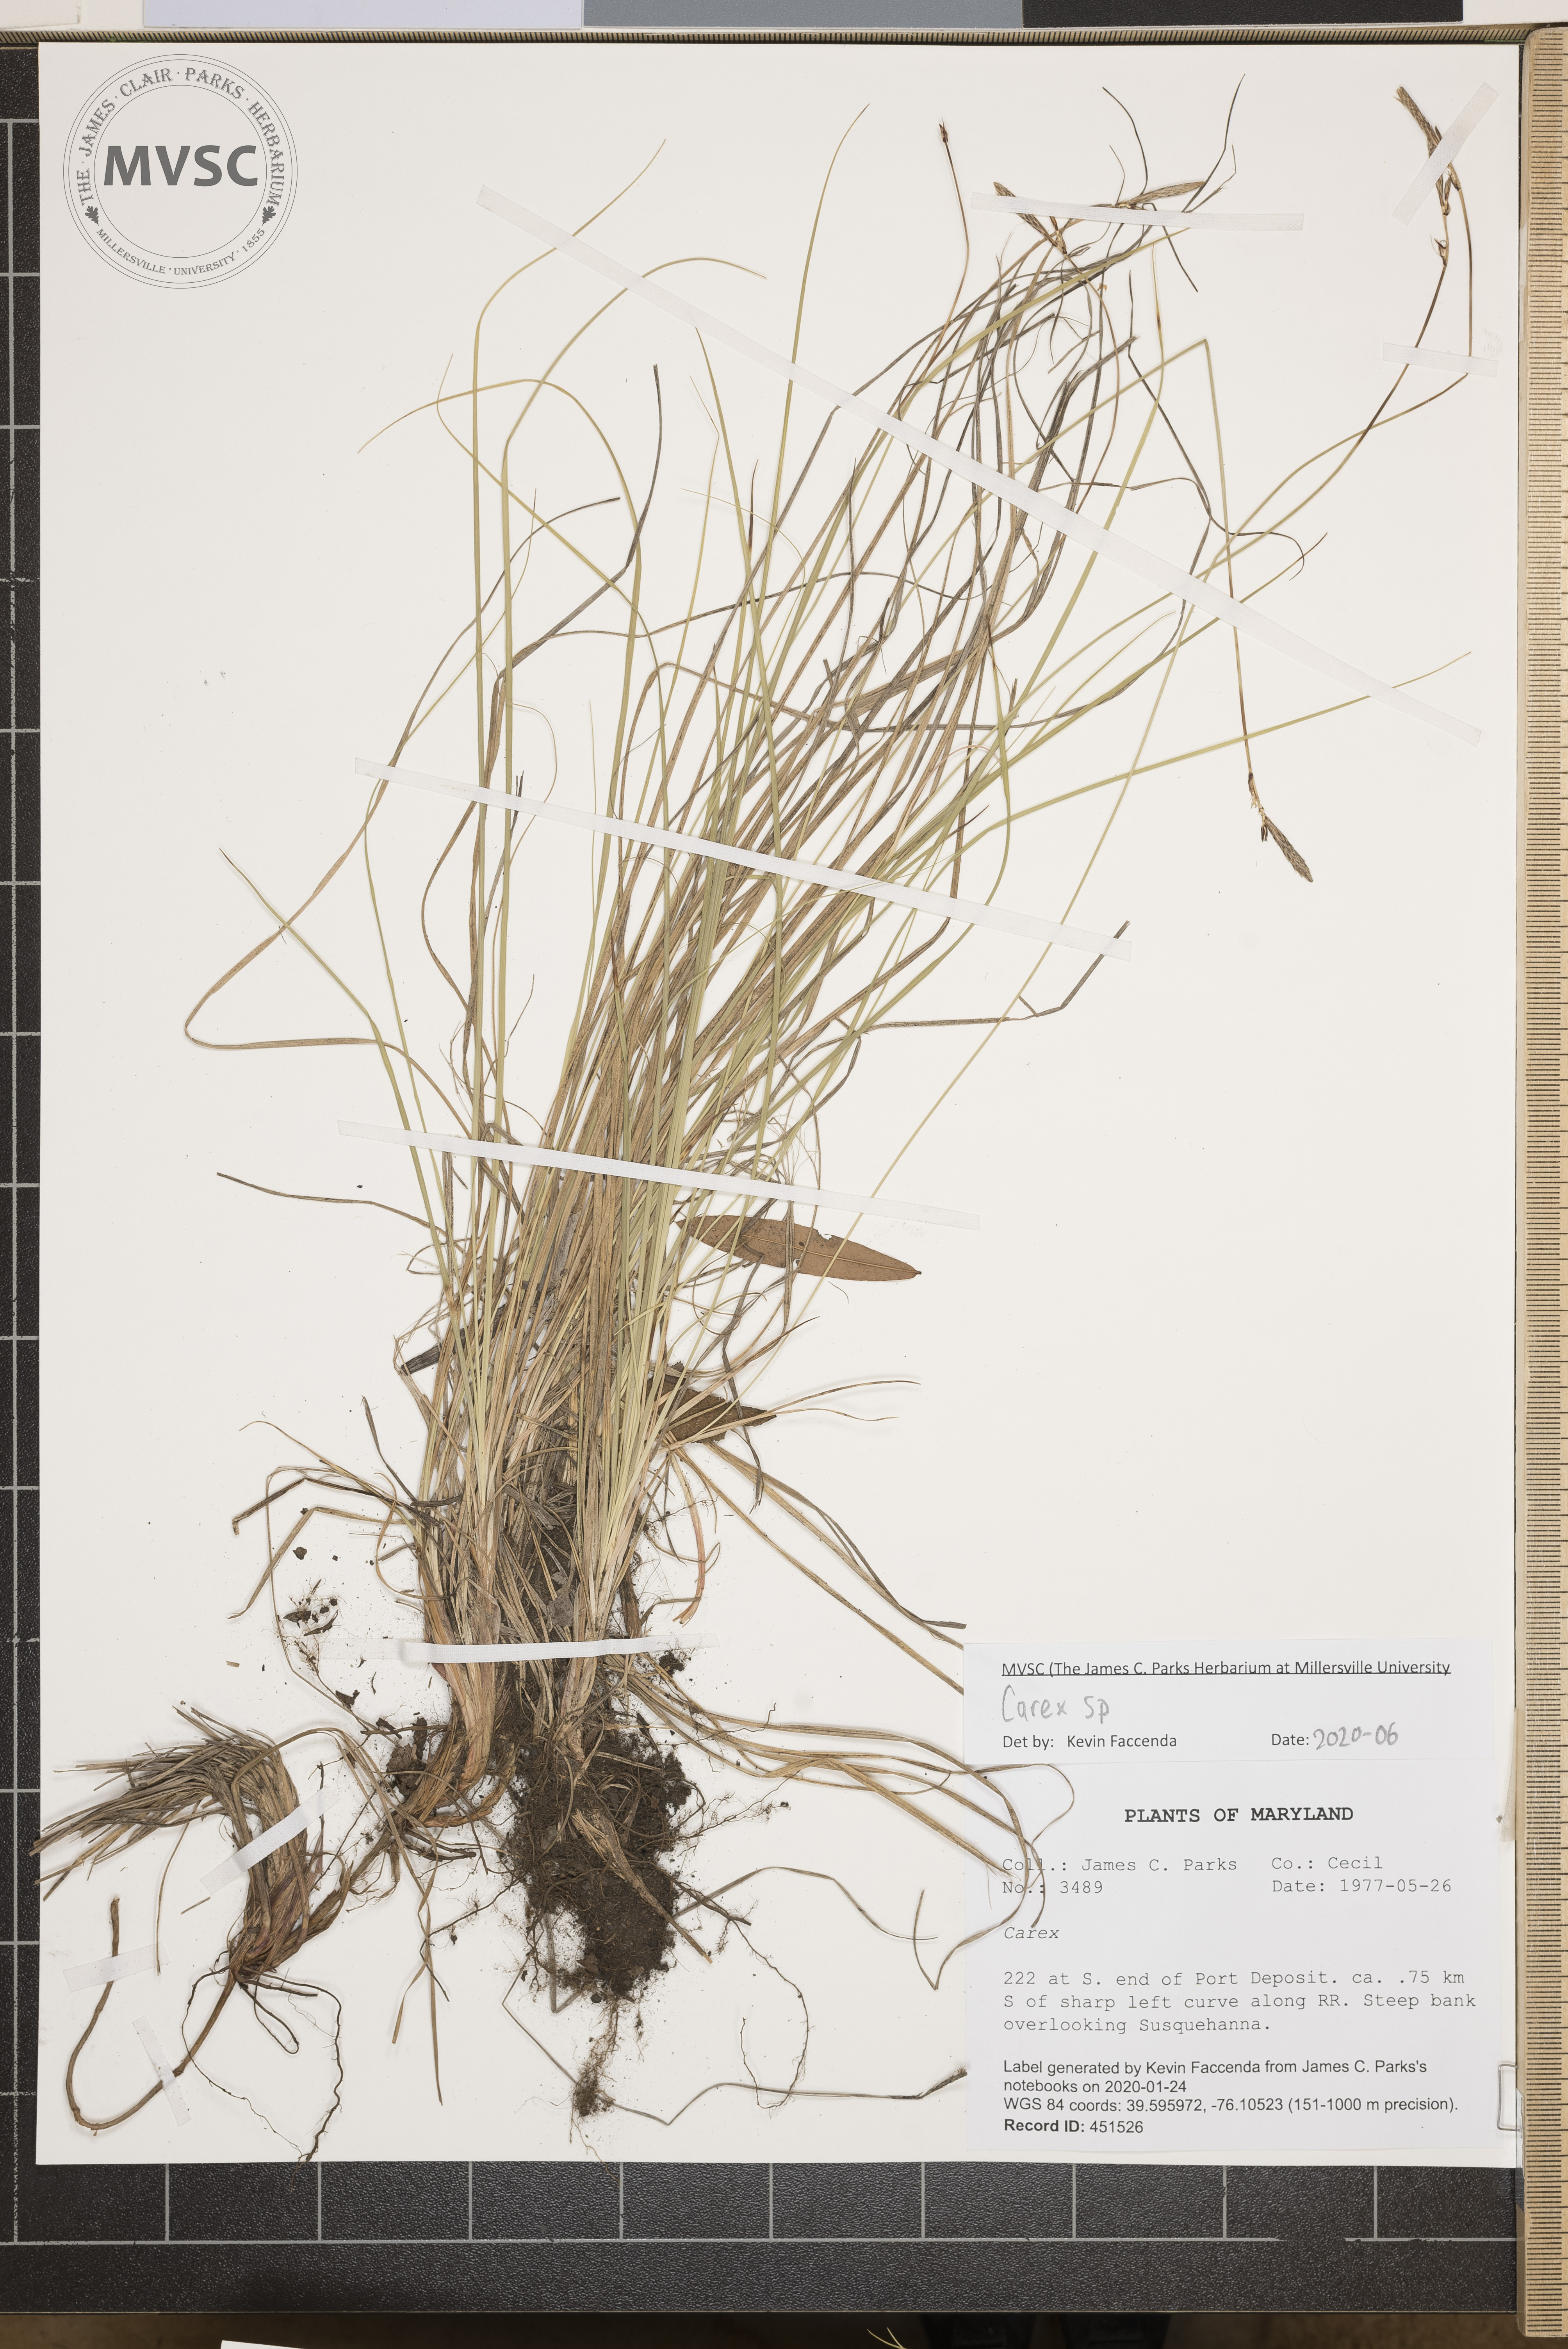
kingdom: Plantae
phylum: Tracheophyta
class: Liliopsida
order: Poales
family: Cyperaceae
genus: Carex
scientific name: Carex
